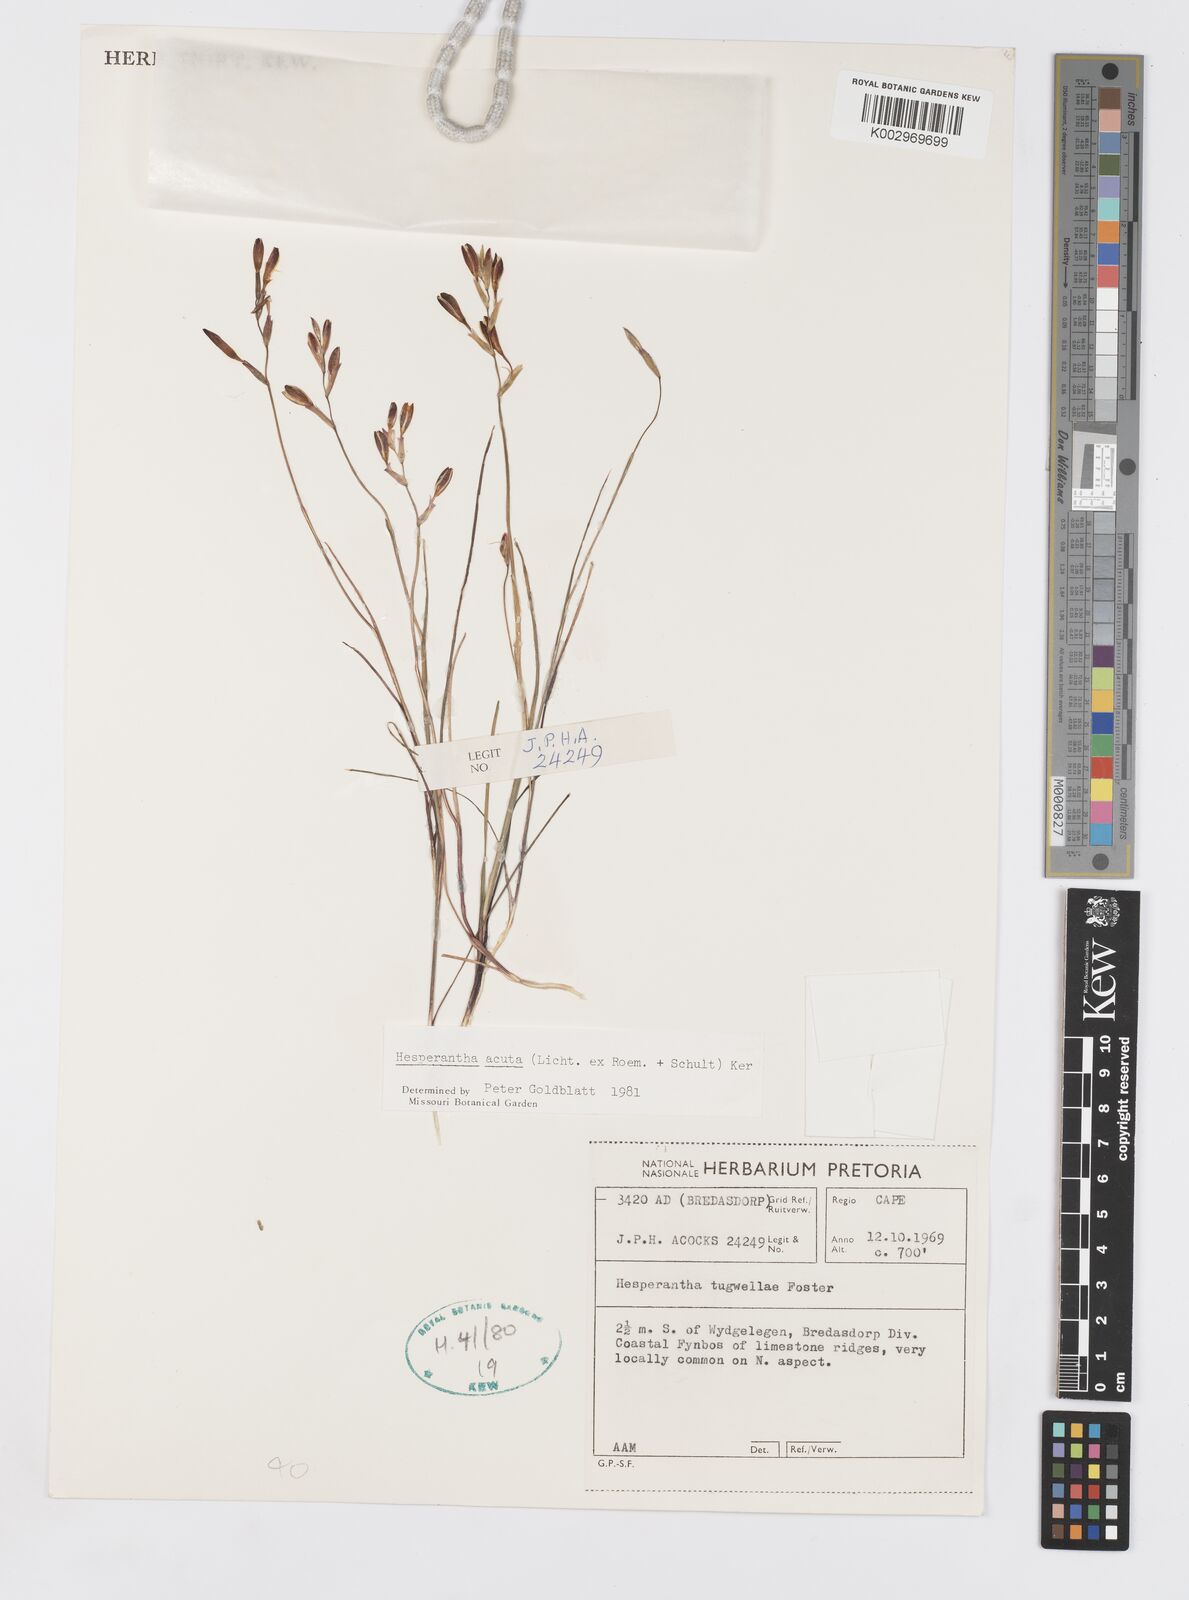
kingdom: Plantae
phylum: Tracheophyta
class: Liliopsida
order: Asparagales
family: Iridaceae
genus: Hesperantha
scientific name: Hesperantha acuta
